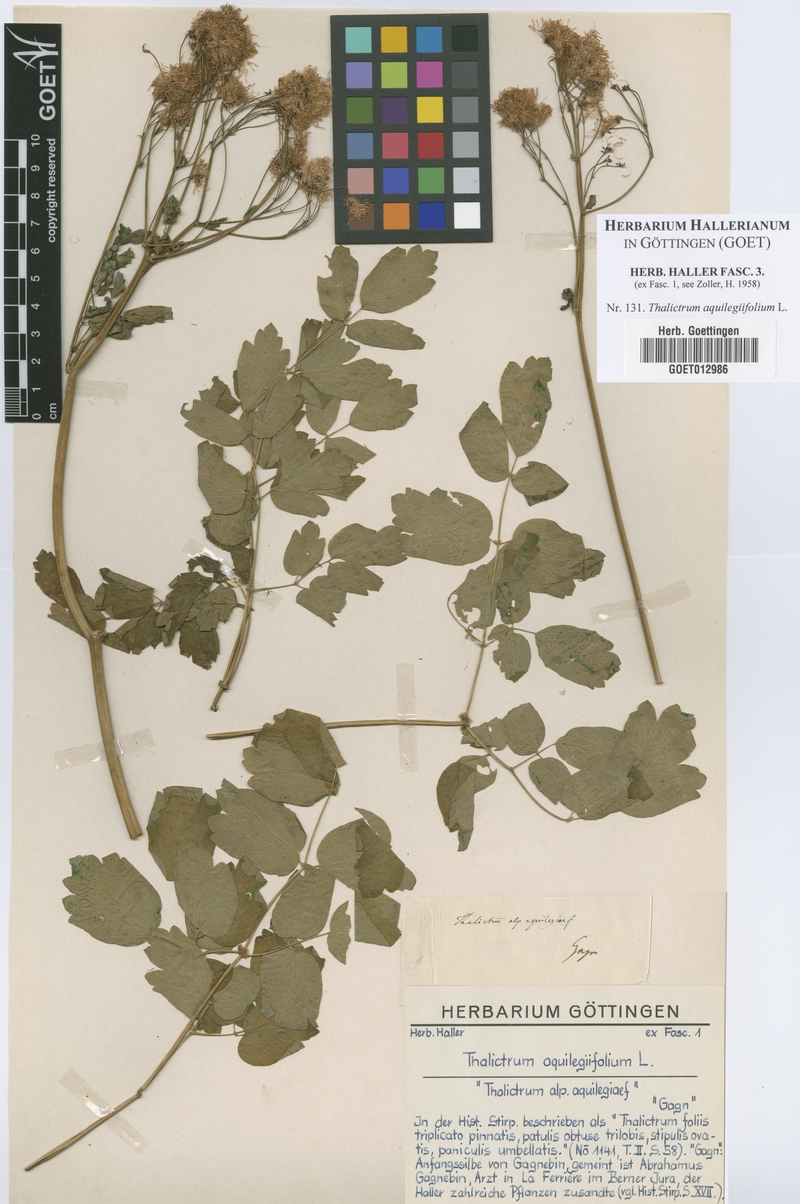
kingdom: Plantae
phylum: Tracheophyta
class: Magnoliopsida
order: Ranunculales
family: Ranunculaceae
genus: Thalictrum
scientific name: Thalictrum aquilegiifolium
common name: French meadow-rue
